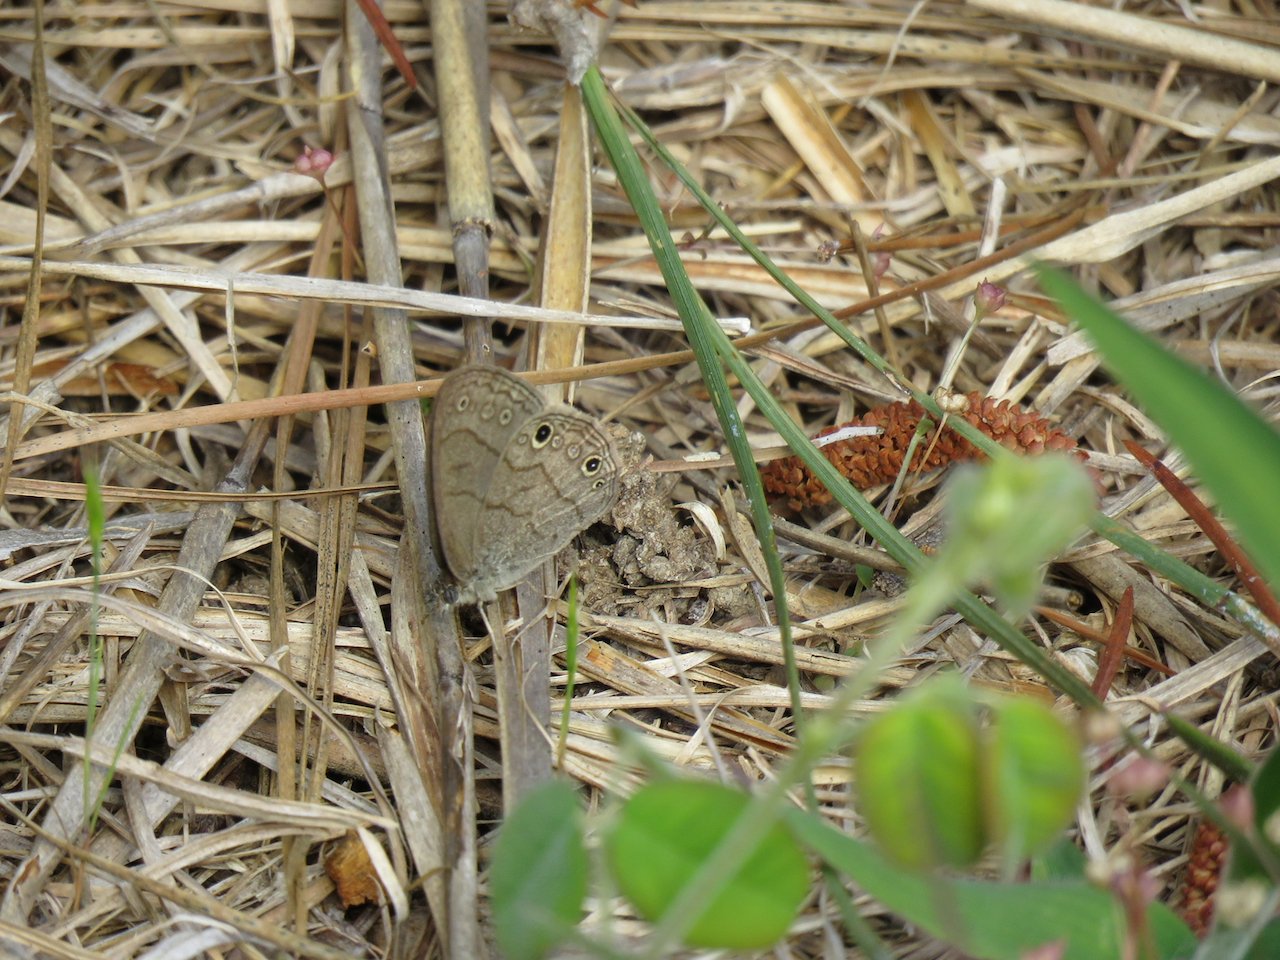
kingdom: Animalia
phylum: Arthropoda
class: Insecta
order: Lepidoptera
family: Nymphalidae
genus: Hermeuptychia
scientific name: Hermeuptychia hermes
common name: Carolina Satyr
